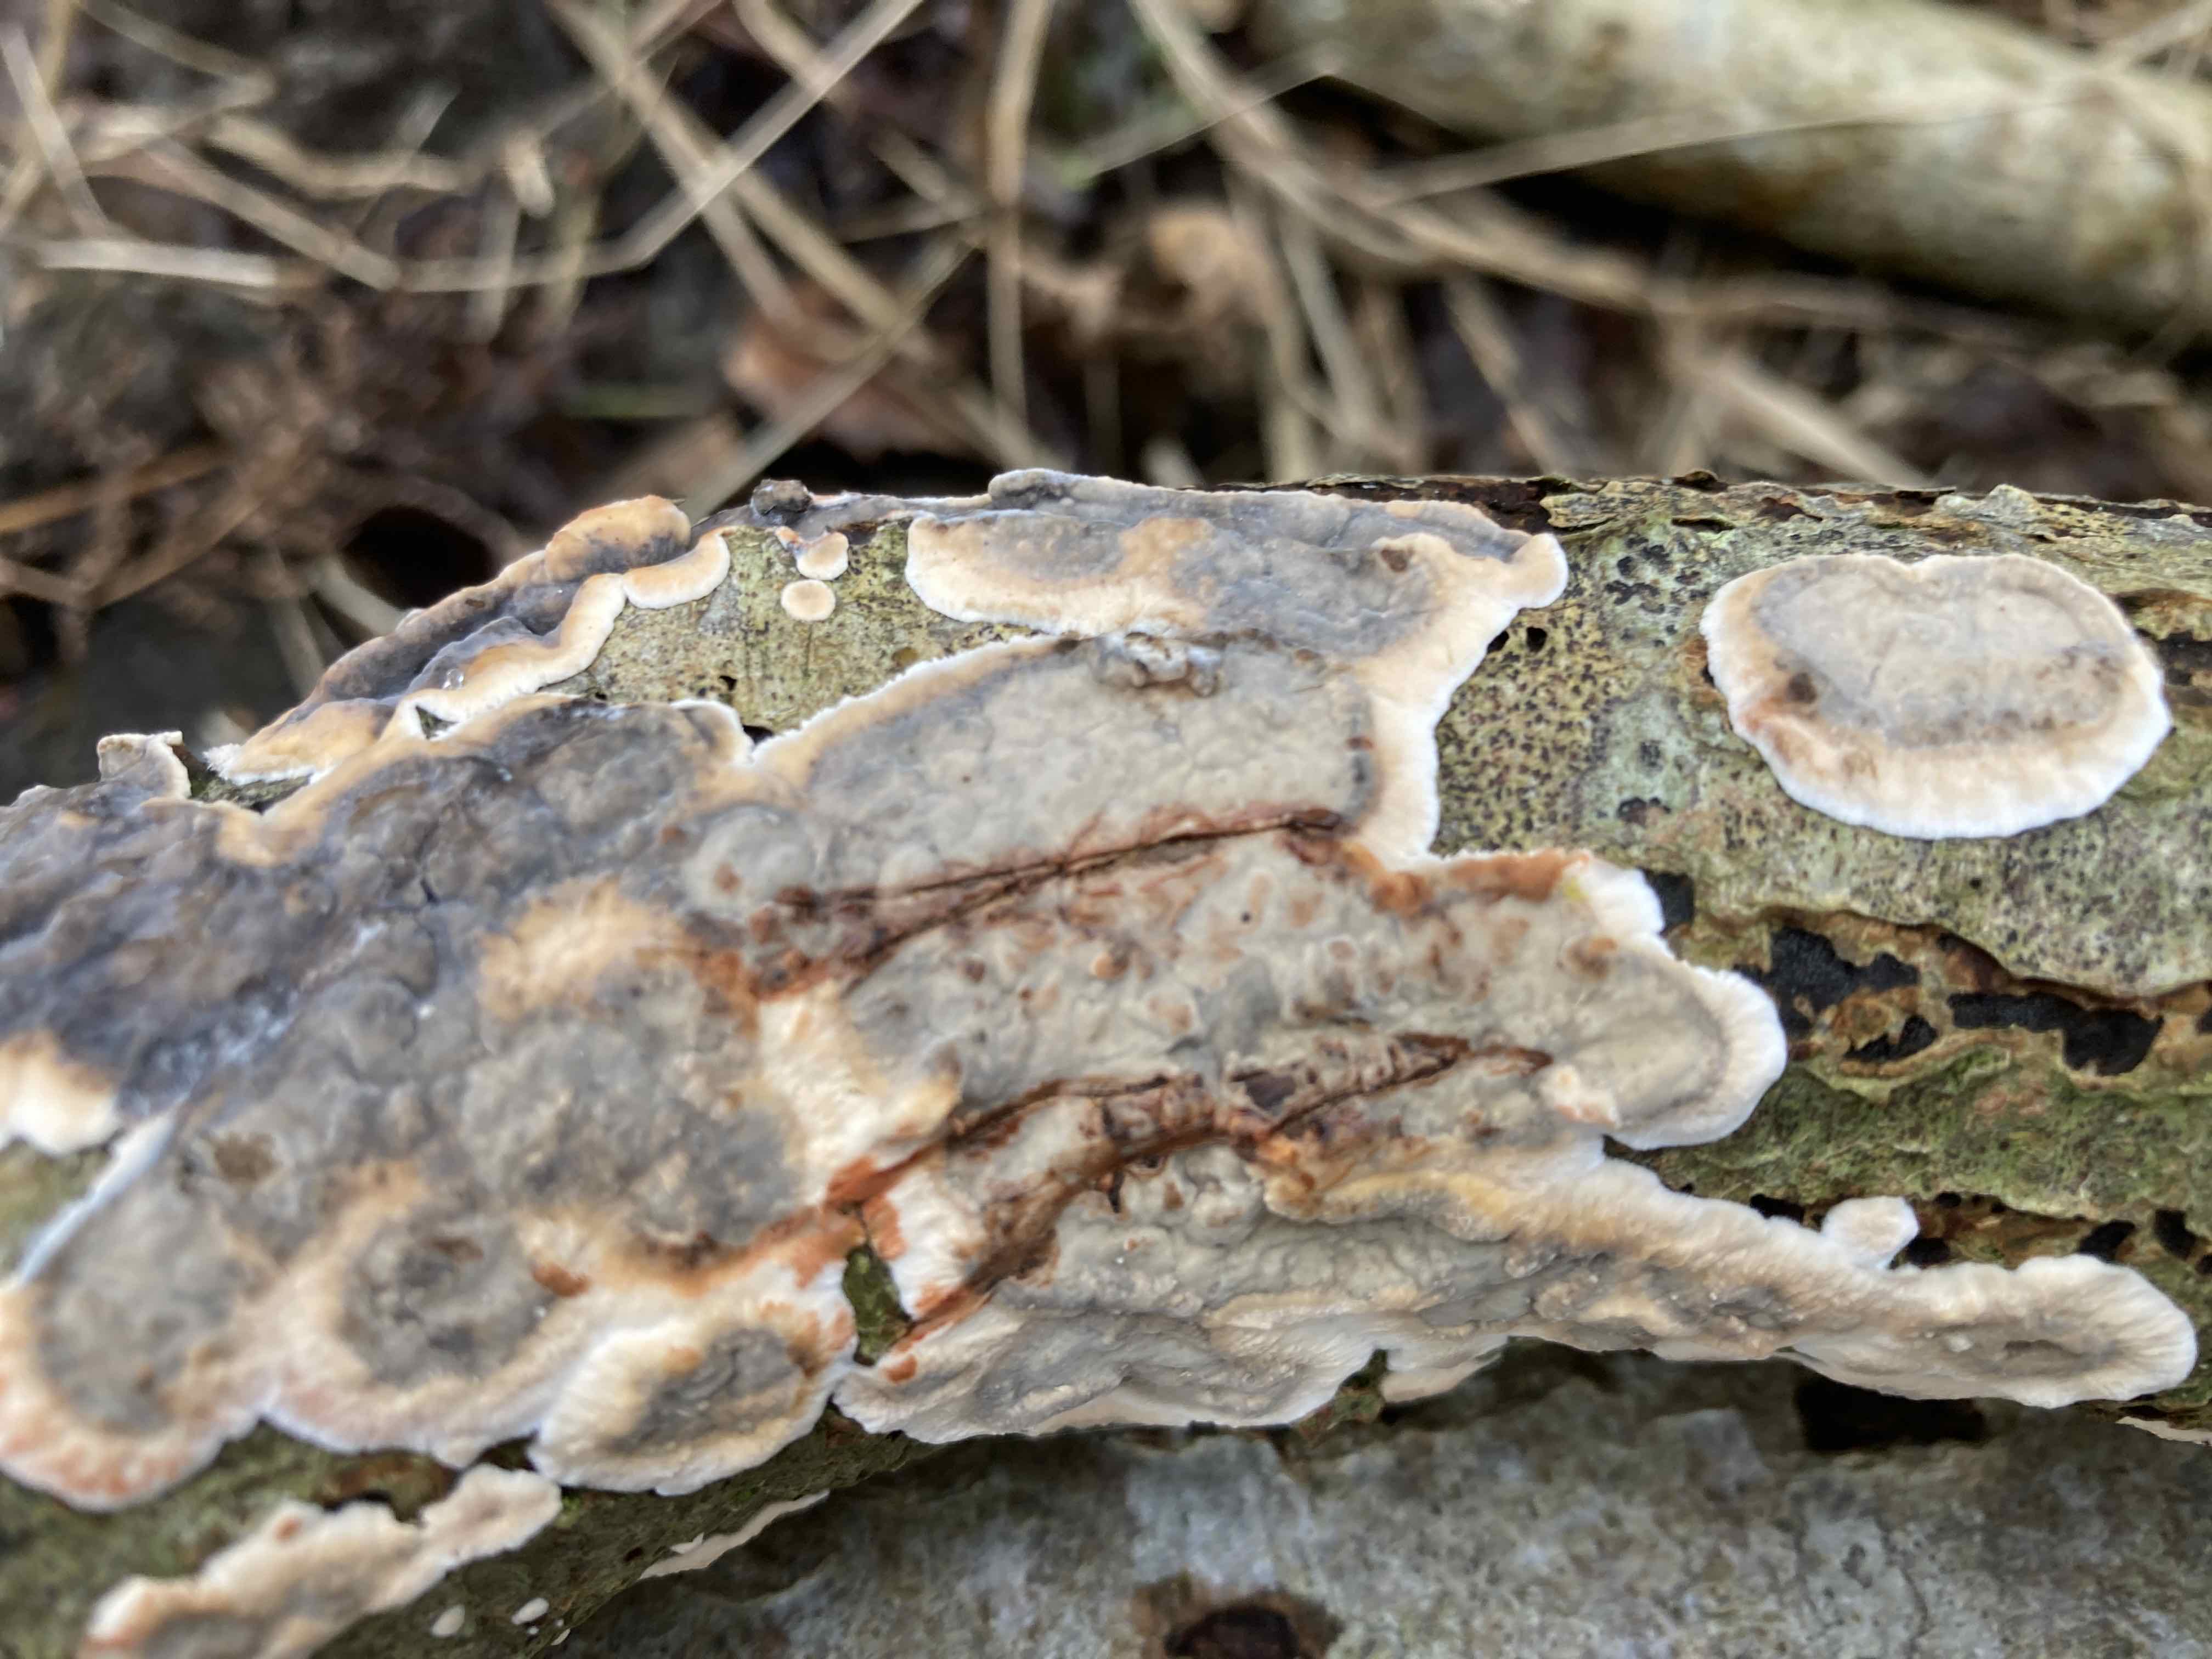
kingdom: Fungi
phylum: Basidiomycota
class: Agaricomycetes
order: Russulales
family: Stereaceae
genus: Stereum
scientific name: Stereum rugosum
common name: rynket lædersvamp
